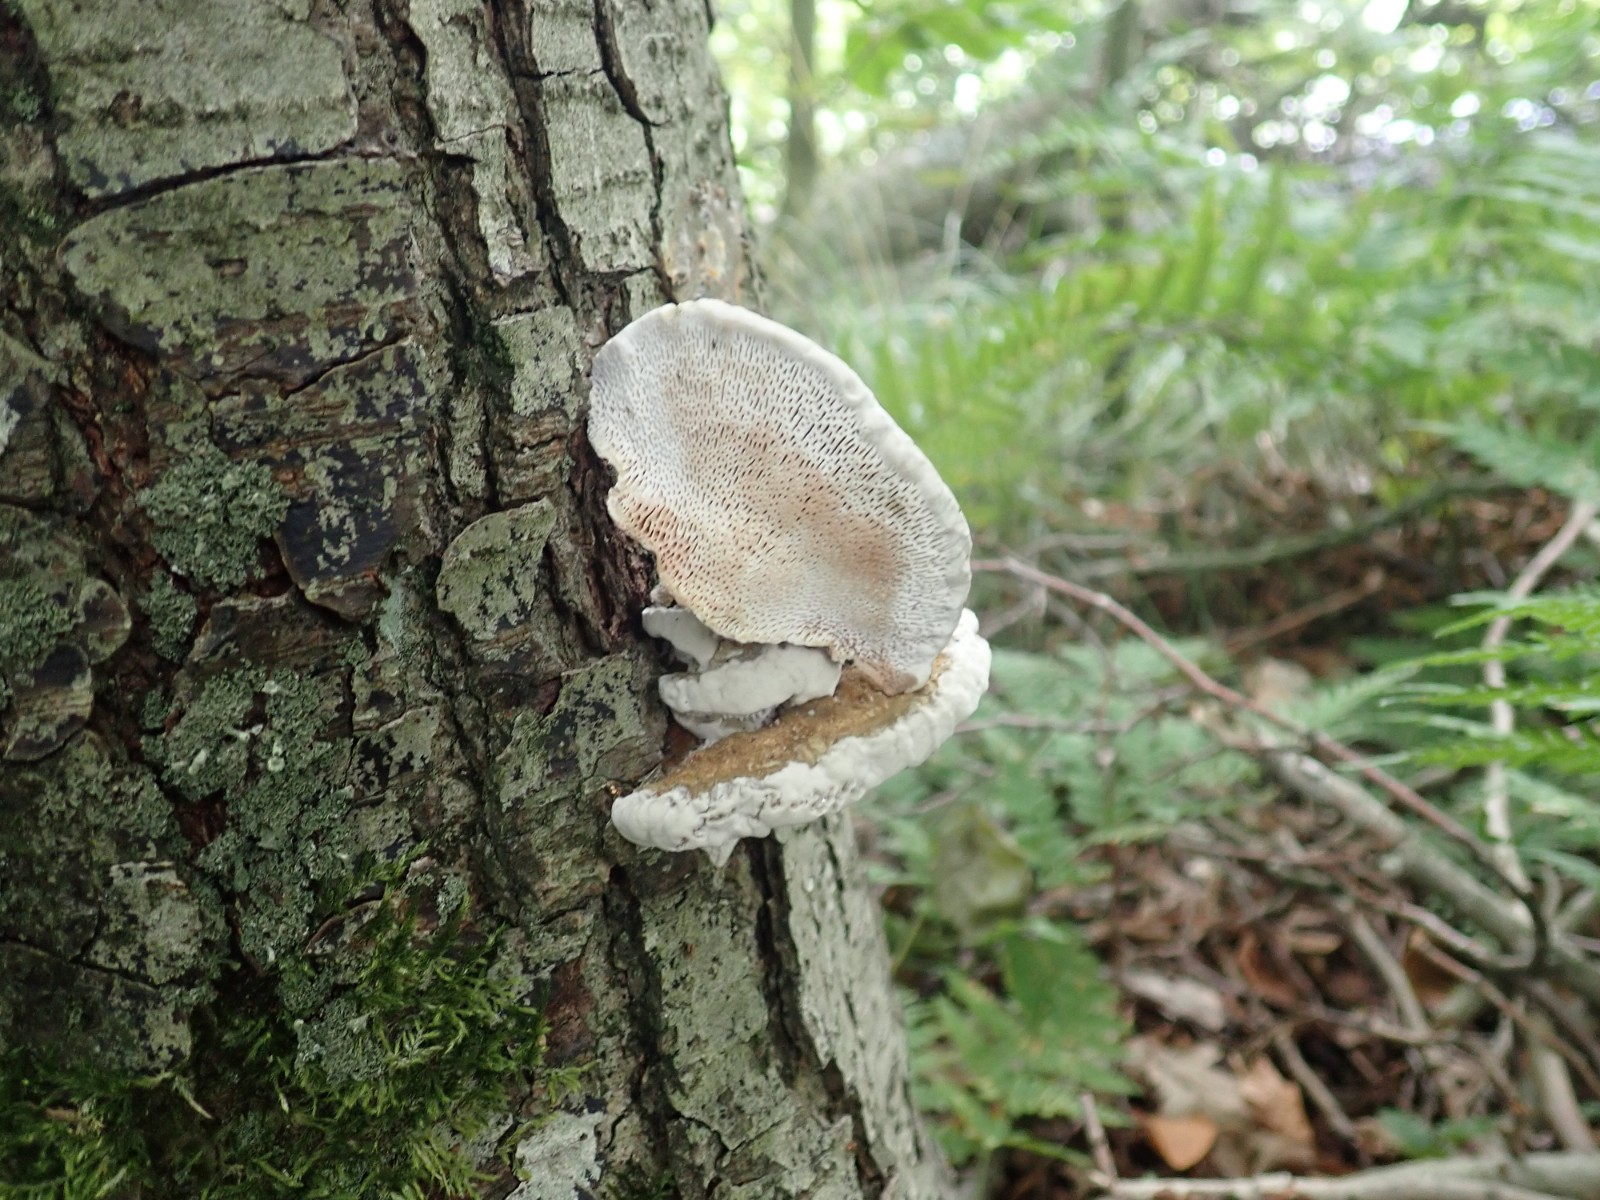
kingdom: Fungi
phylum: Basidiomycota
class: Agaricomycetes
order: Polyporales
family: Polyporaceae
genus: Daedaleopsis
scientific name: Daedaleopsis confragosa
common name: rødmende læderporesvamp
